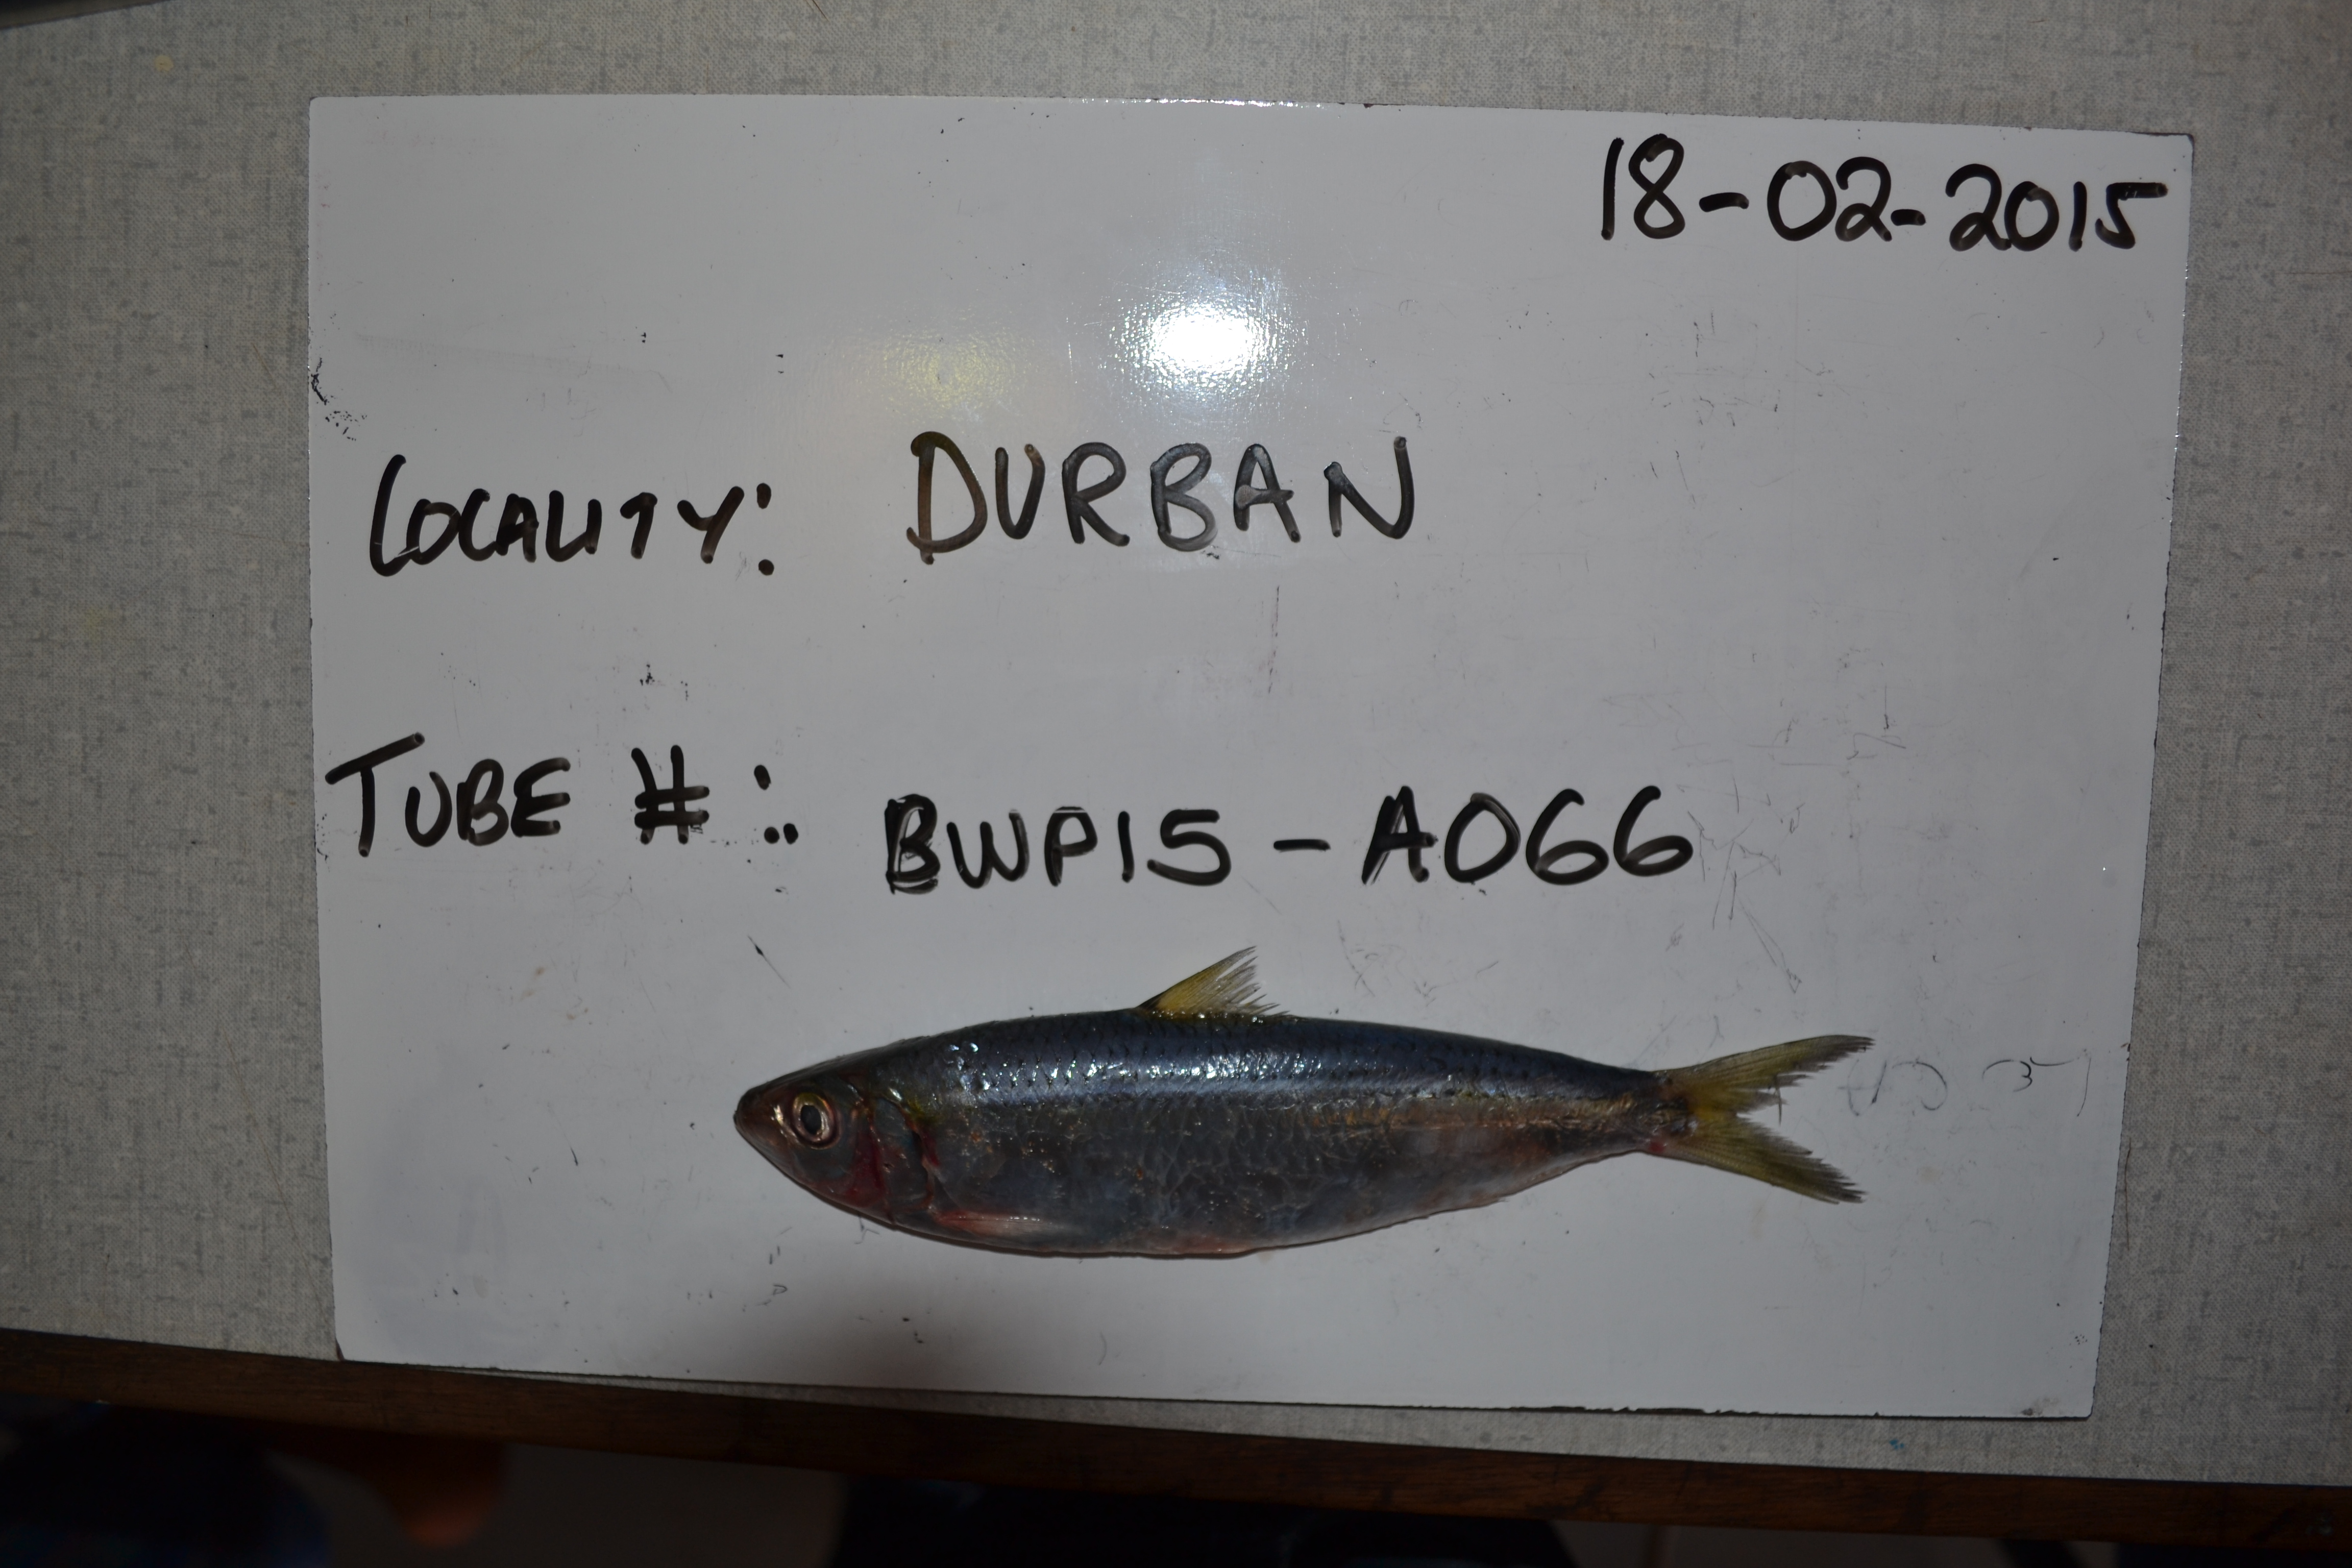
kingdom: Animalia
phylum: Chordata
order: Clupeiformes
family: Clupeidae
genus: Sardinops
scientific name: Sardinops sagax
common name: Pilchard
